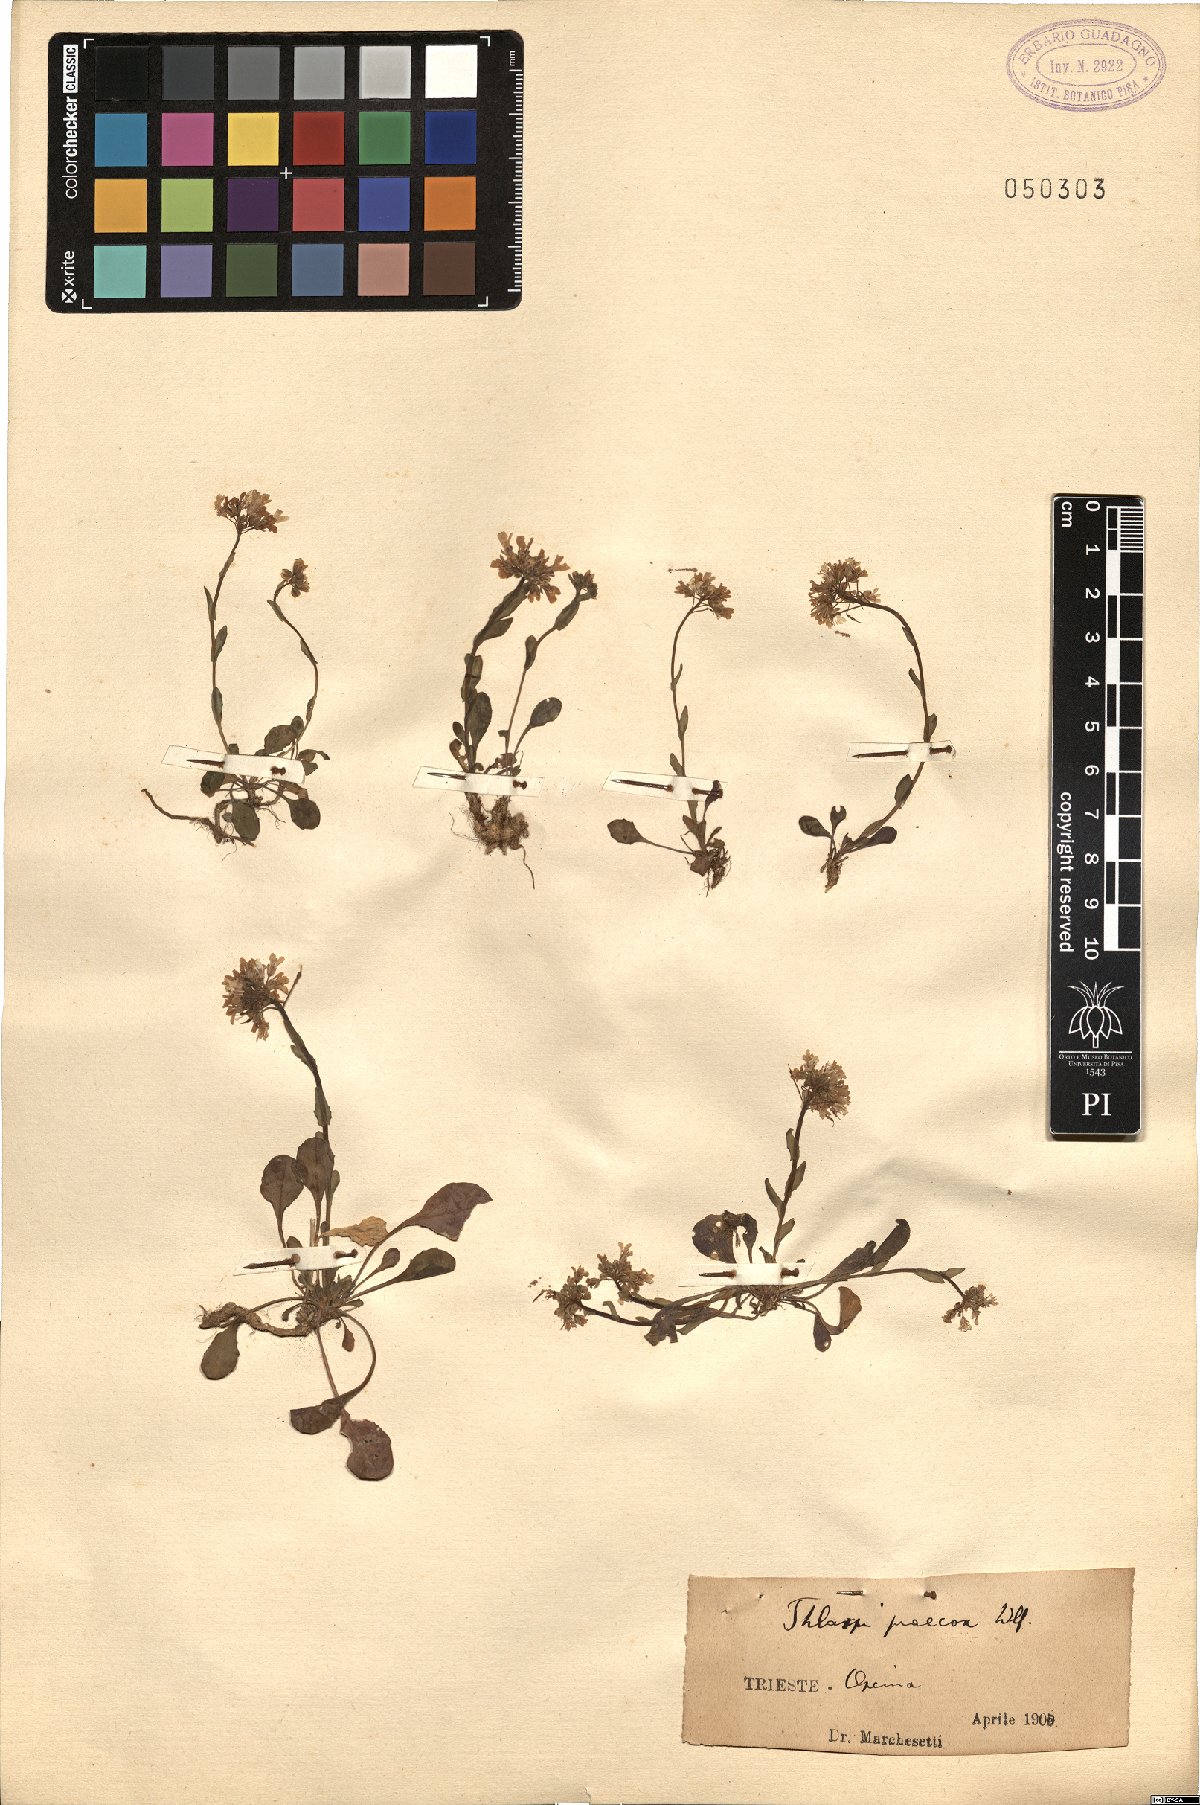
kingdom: Plantae
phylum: Tracheophyta
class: Magnoliopsida
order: Brassicales
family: Brassicaceae
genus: Noccaea
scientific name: Noccaea praecox
